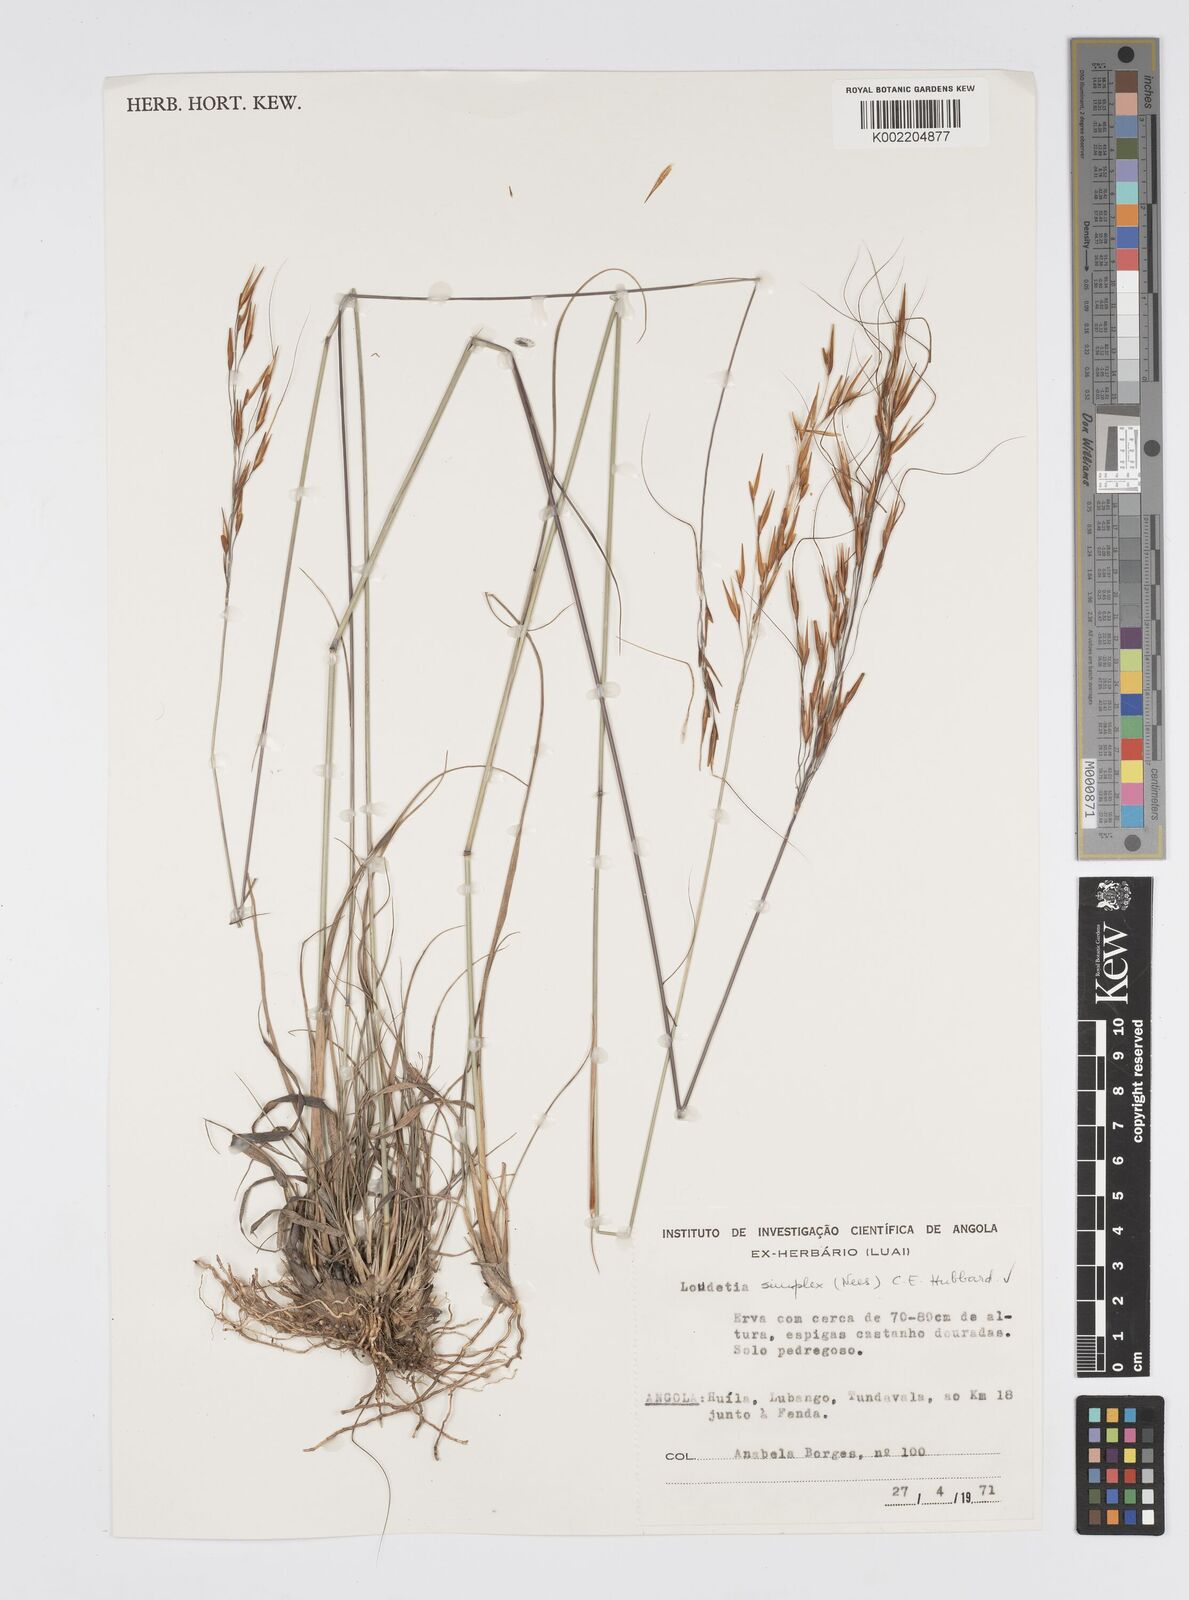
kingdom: Plantae
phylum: Tracheophyta
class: Liliopsida
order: Poales
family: Poaceae
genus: Loudetia
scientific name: Loudetia simplex
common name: Common russet grass
